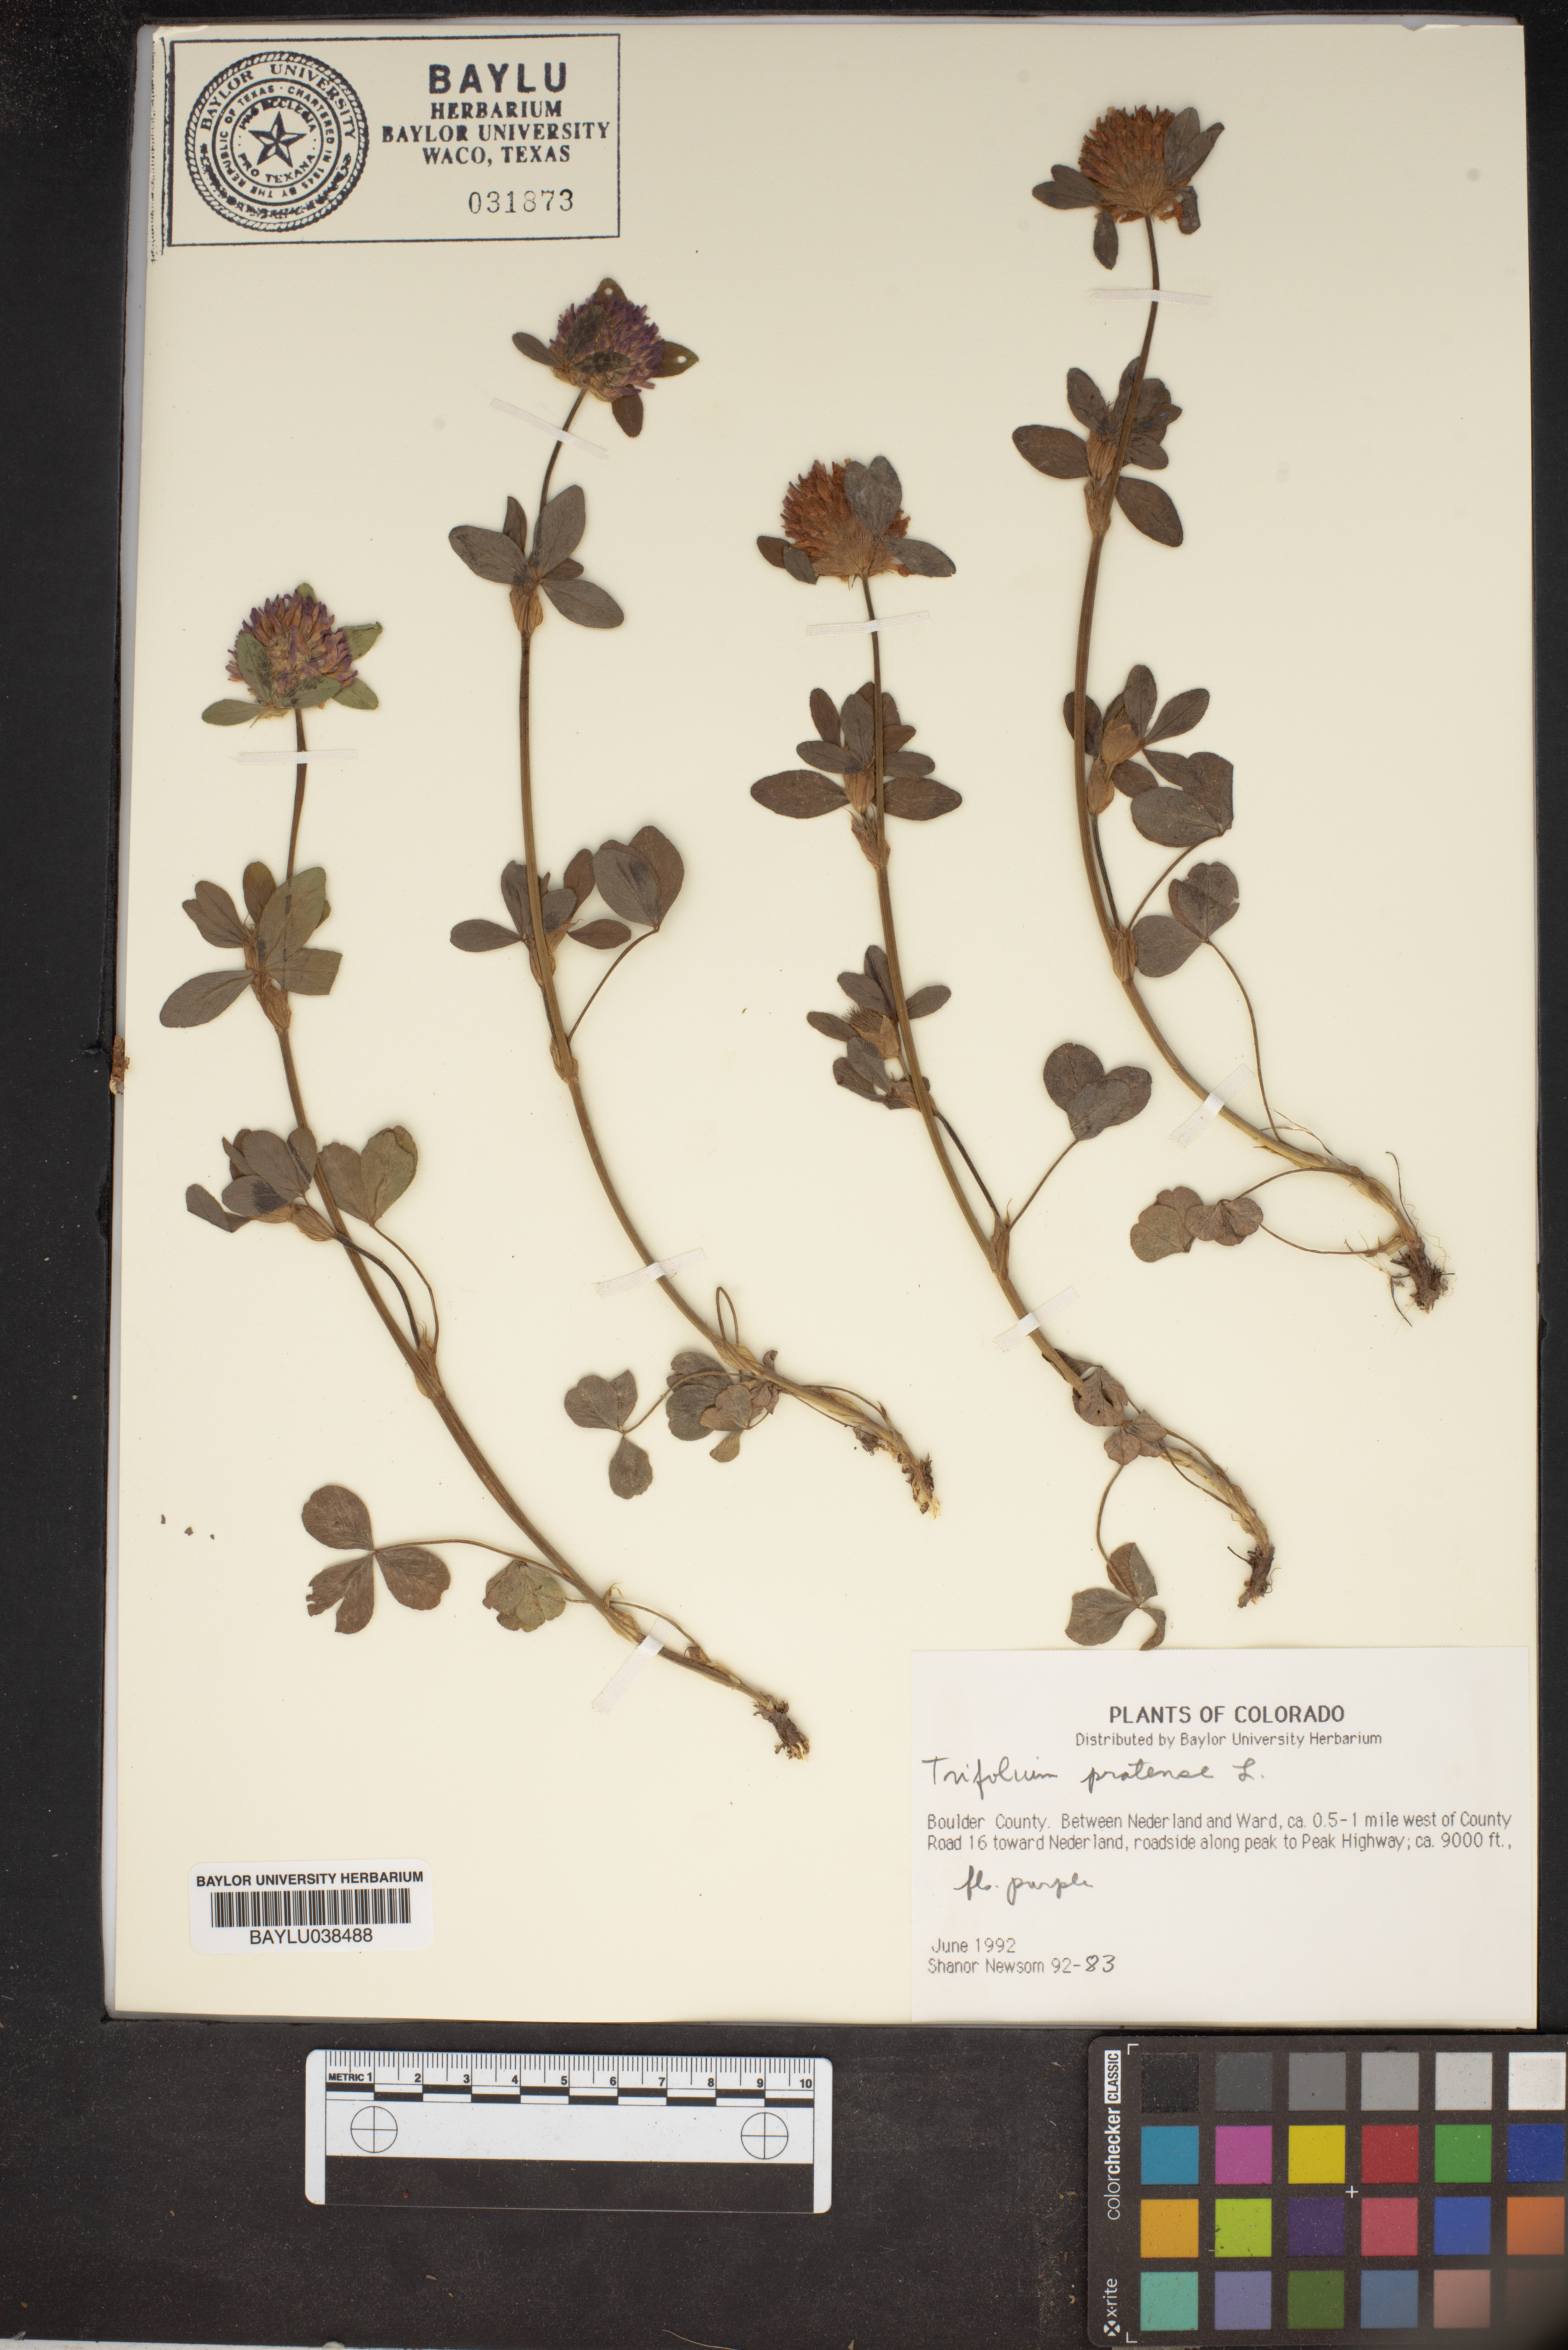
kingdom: Plantae
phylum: Tracheophyta
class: Magnoliopsida
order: Fabales
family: Fabaceae
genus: Trifolium
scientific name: Trifolium pratense
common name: Red clover
